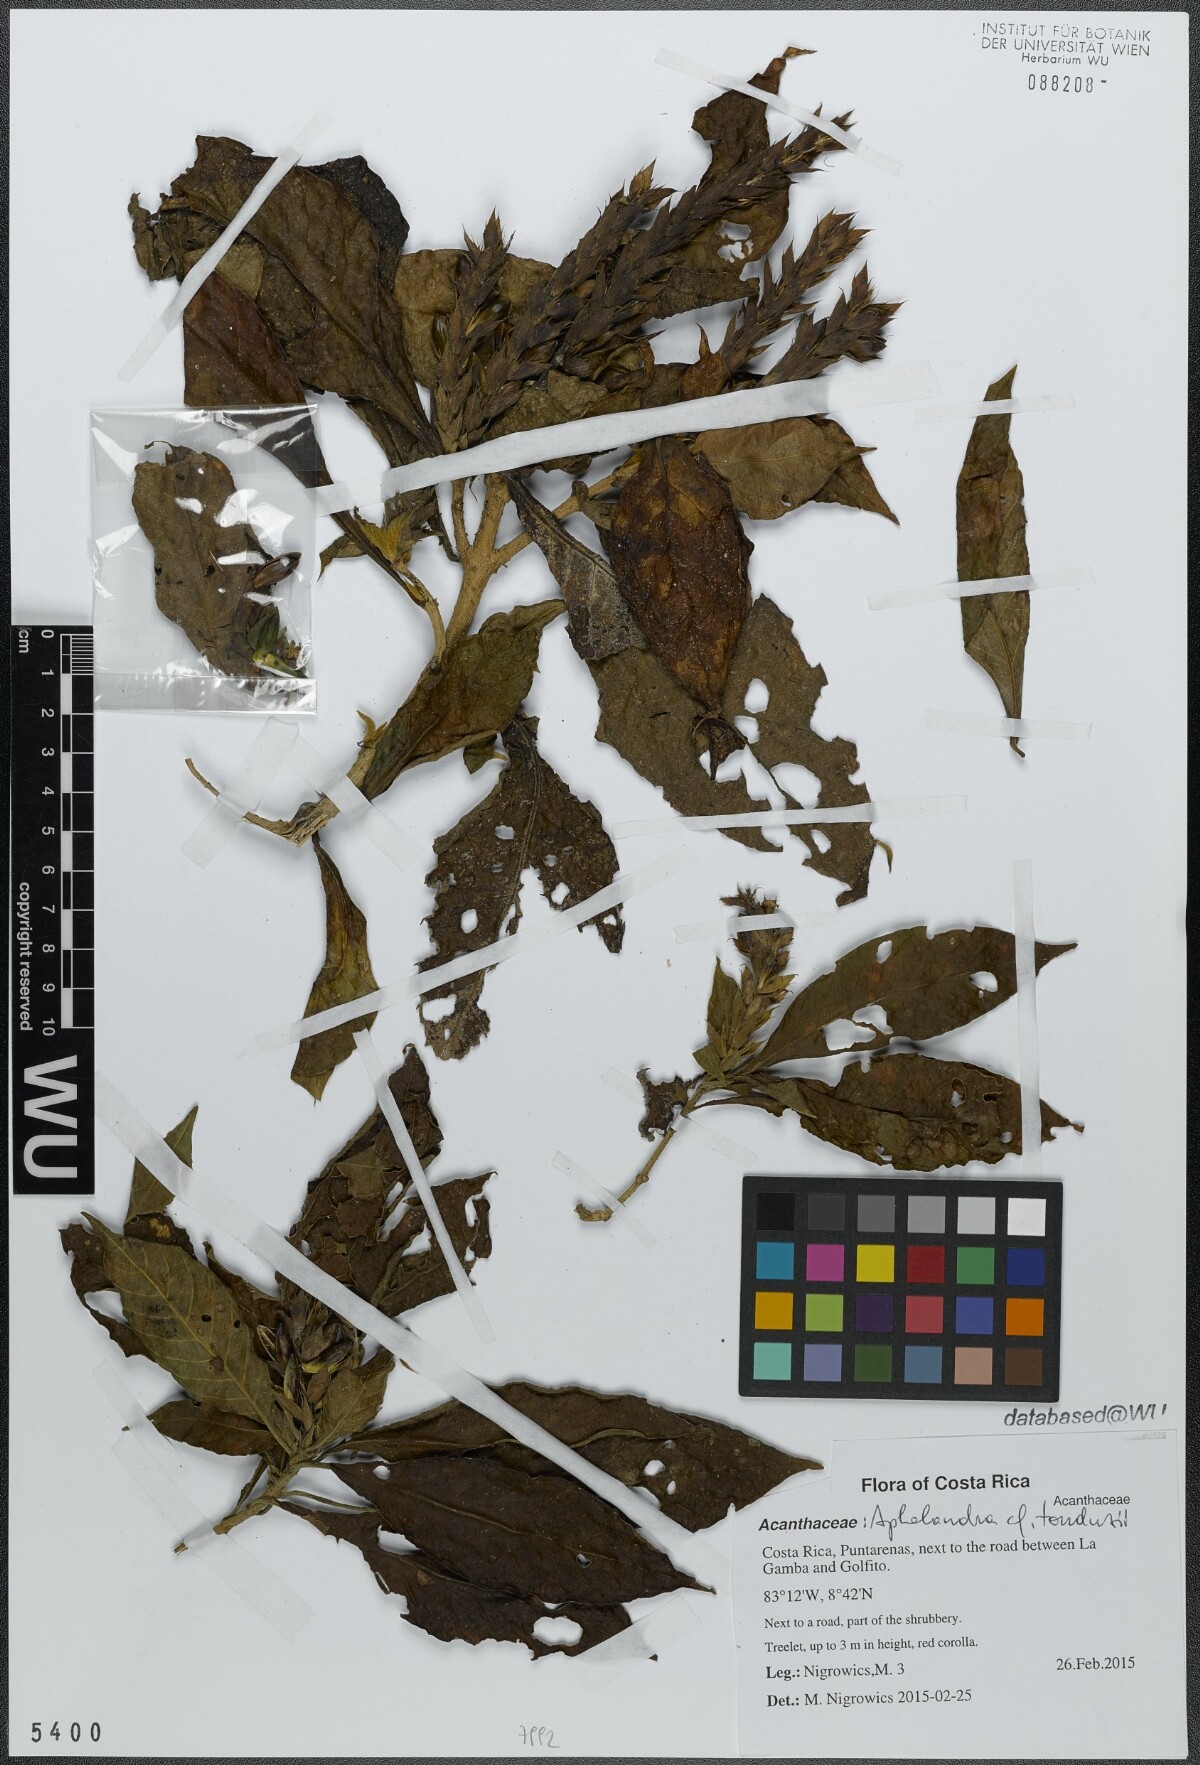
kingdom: Plantae
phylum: Tracheophyta
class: Magnoliopsida
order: Lamiales
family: Acanthaceae
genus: Aphelandra
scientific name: Aphelandra scabra
